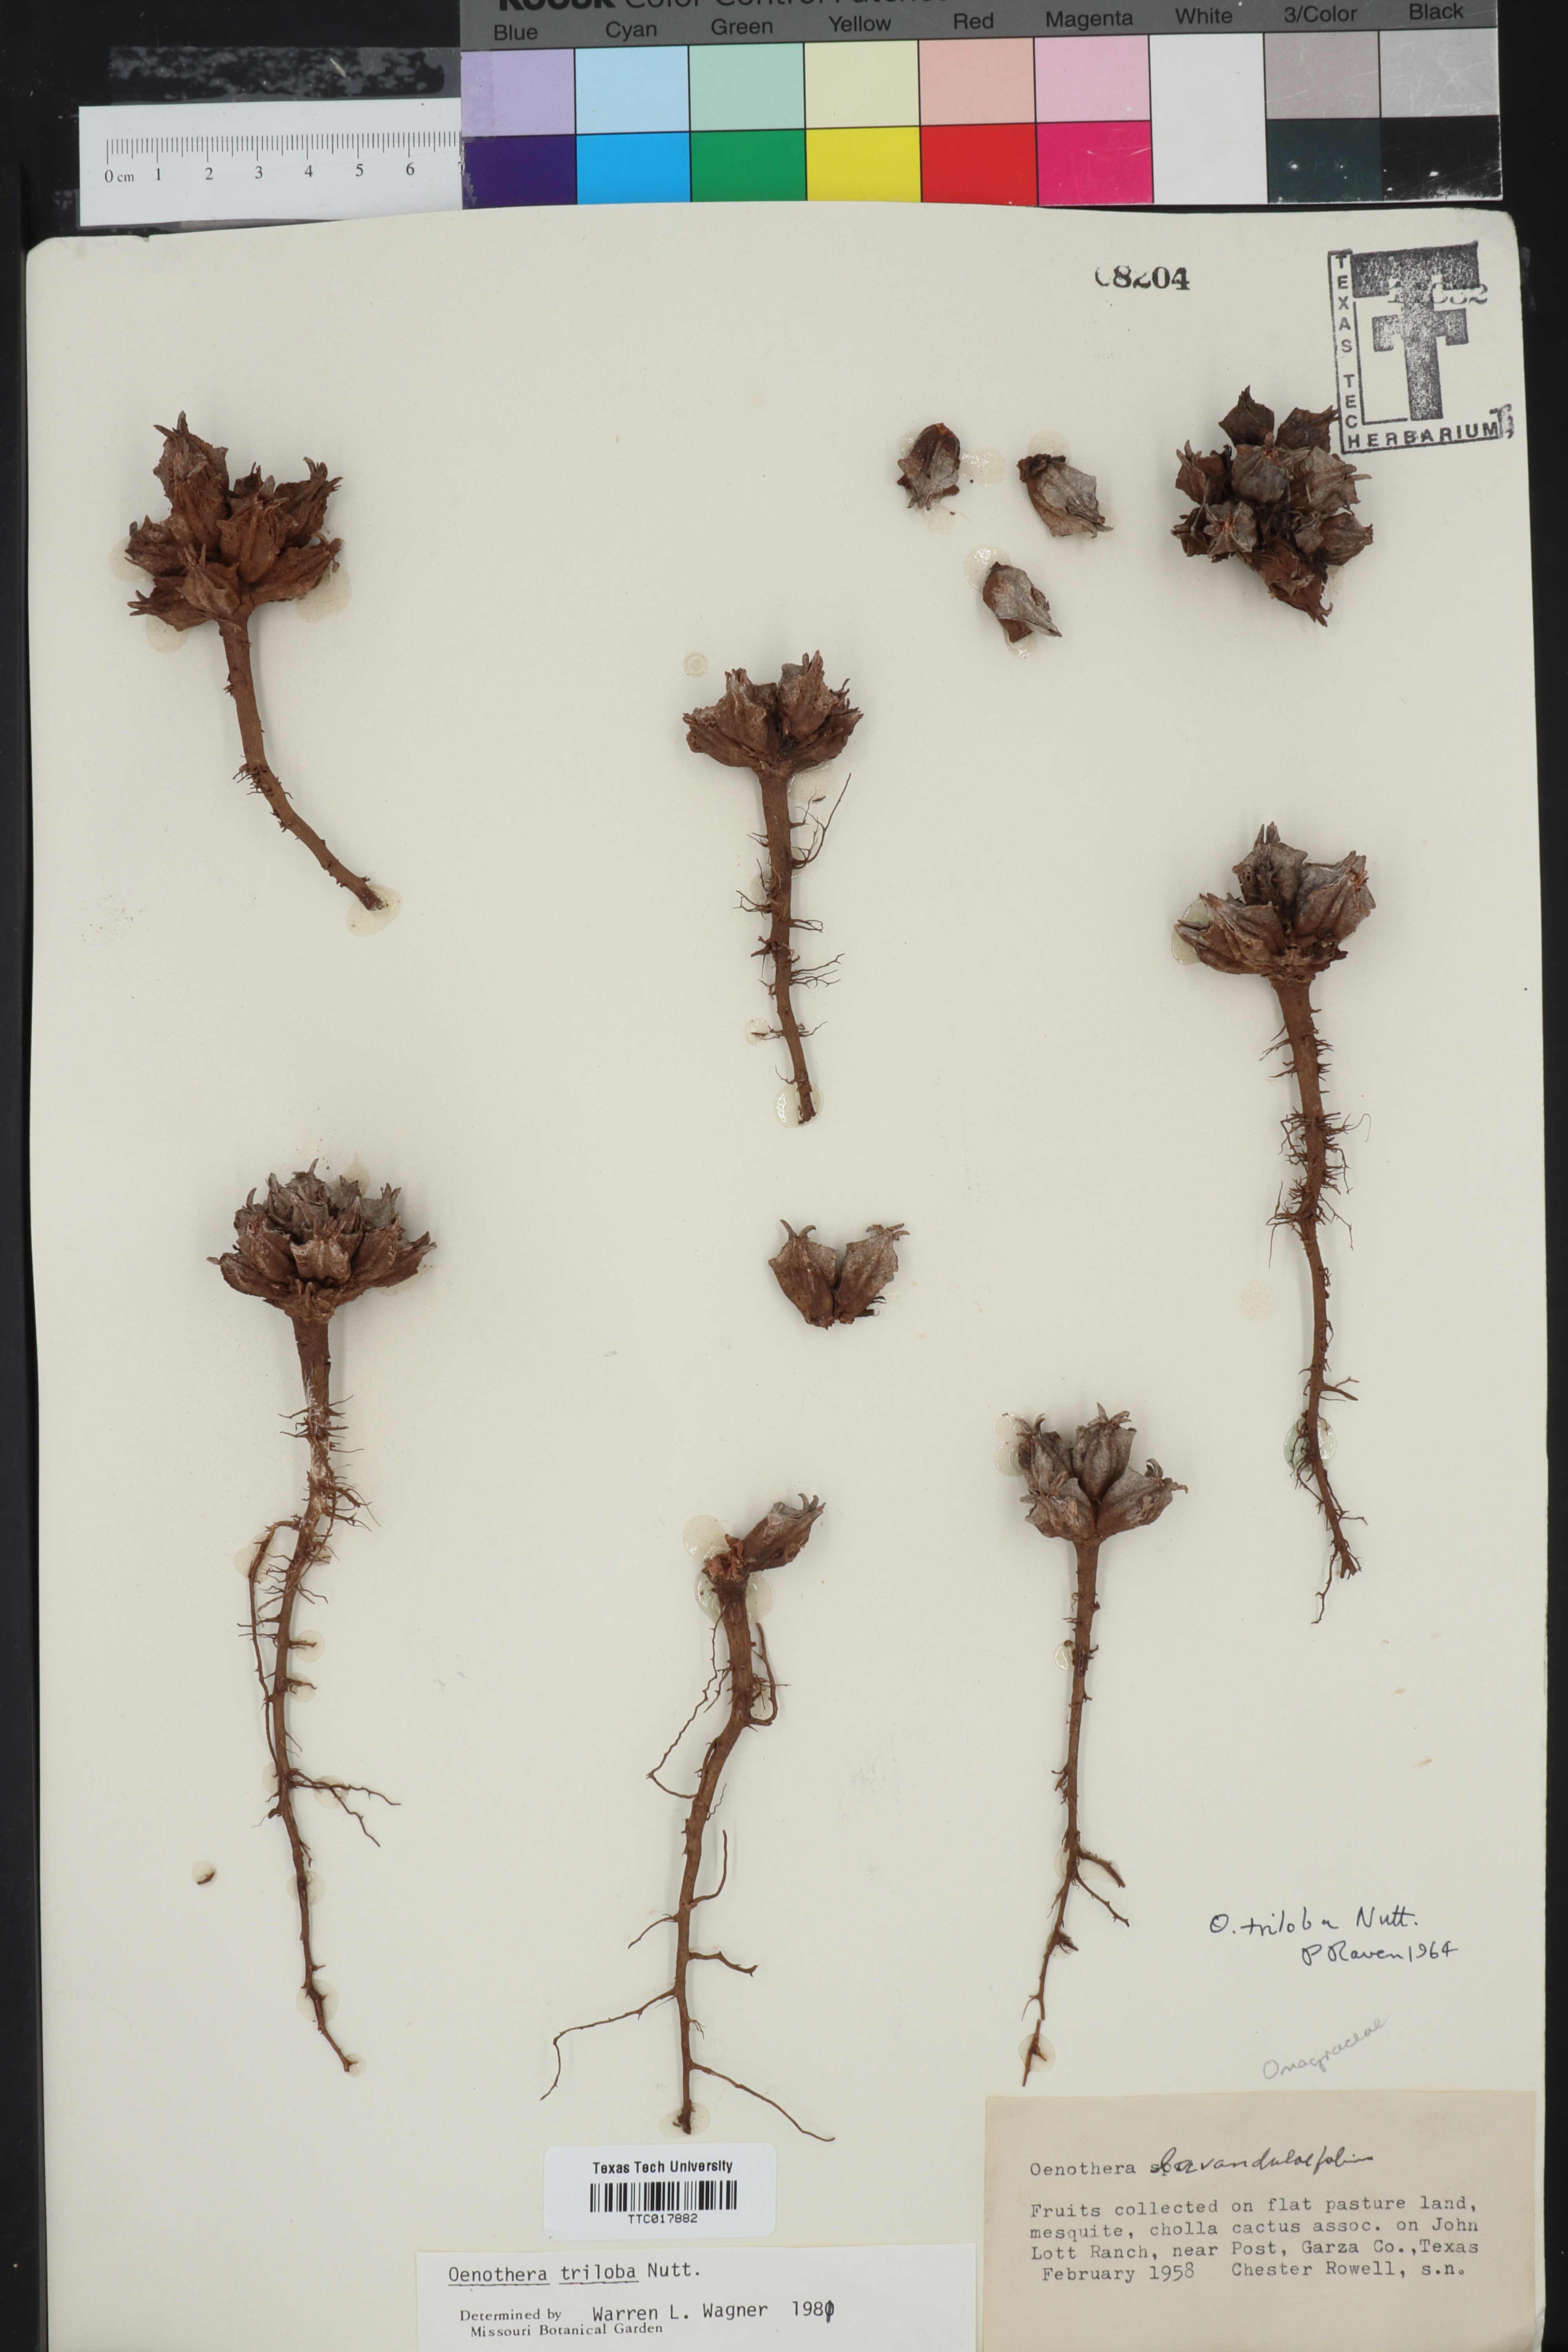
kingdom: Plantae
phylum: Tracheophyta
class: Magnoliopsida
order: Myrtales
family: Onagraceae
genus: Oenothera
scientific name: Oenothera triloba
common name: Sessile evening-primrose
